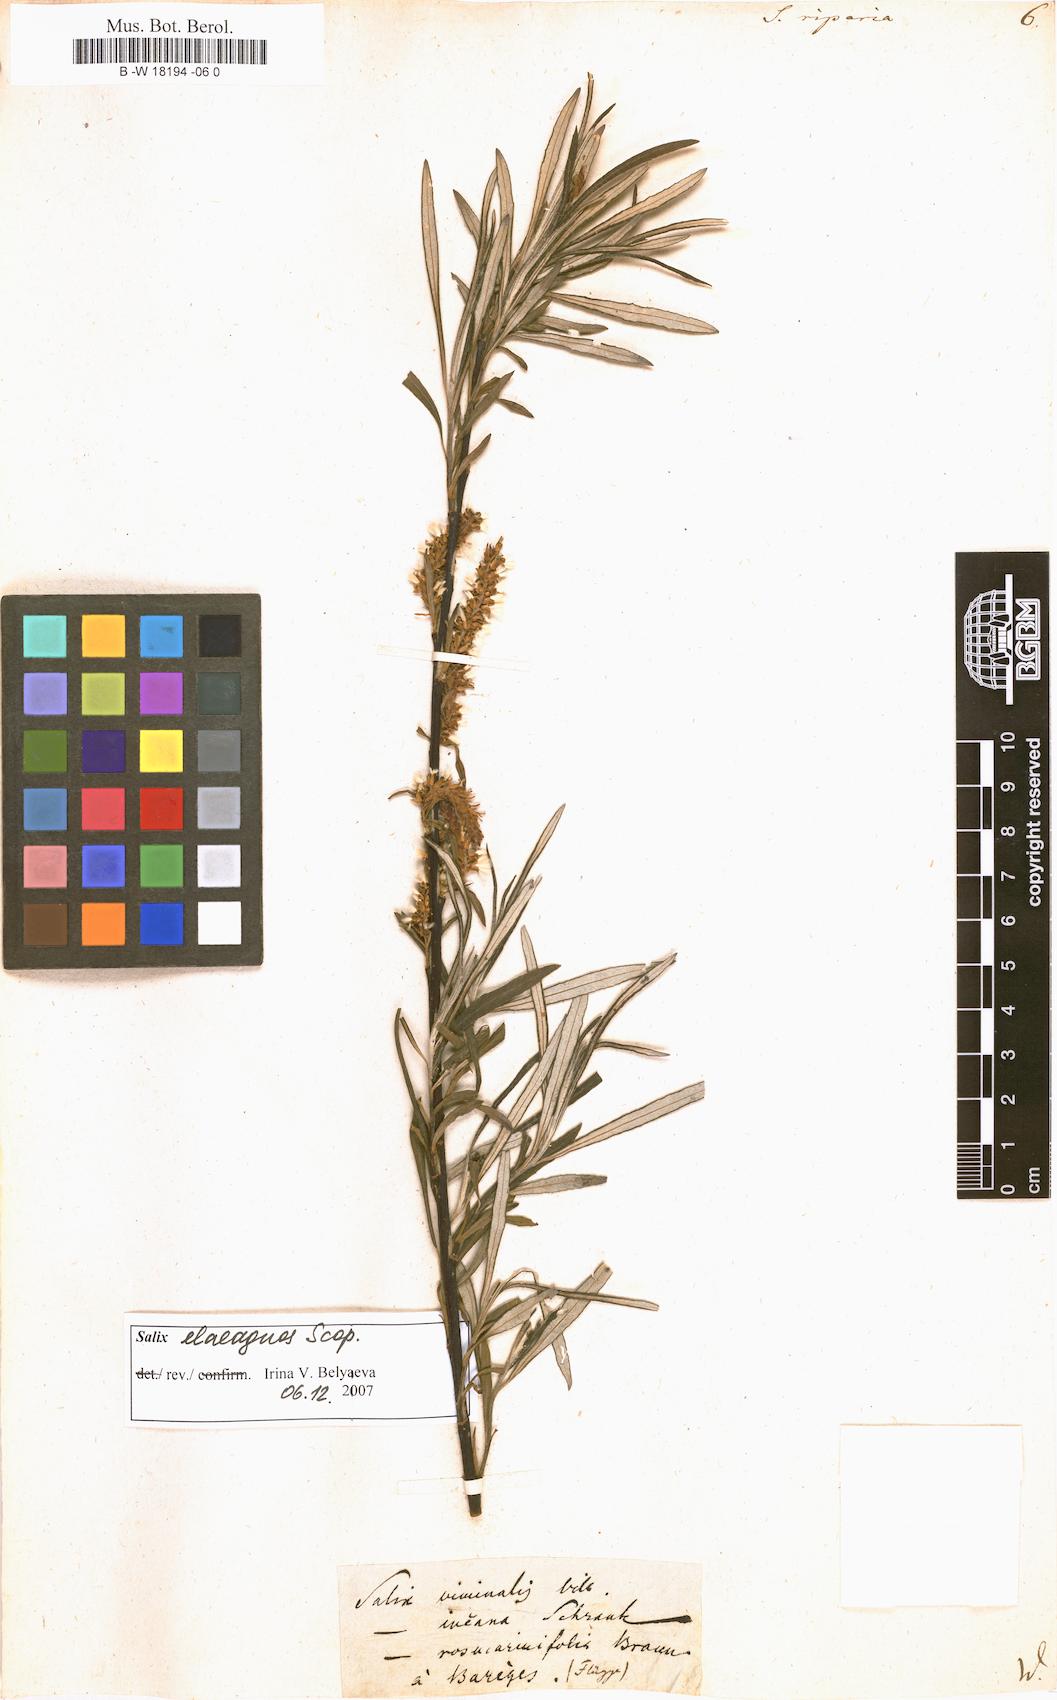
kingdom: Plantae
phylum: Tracheophyta
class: Magnoliopsida
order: Malpighiales
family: Salicaceae
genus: Salix
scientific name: Salix eleagnos
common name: Elaeagnus willow
